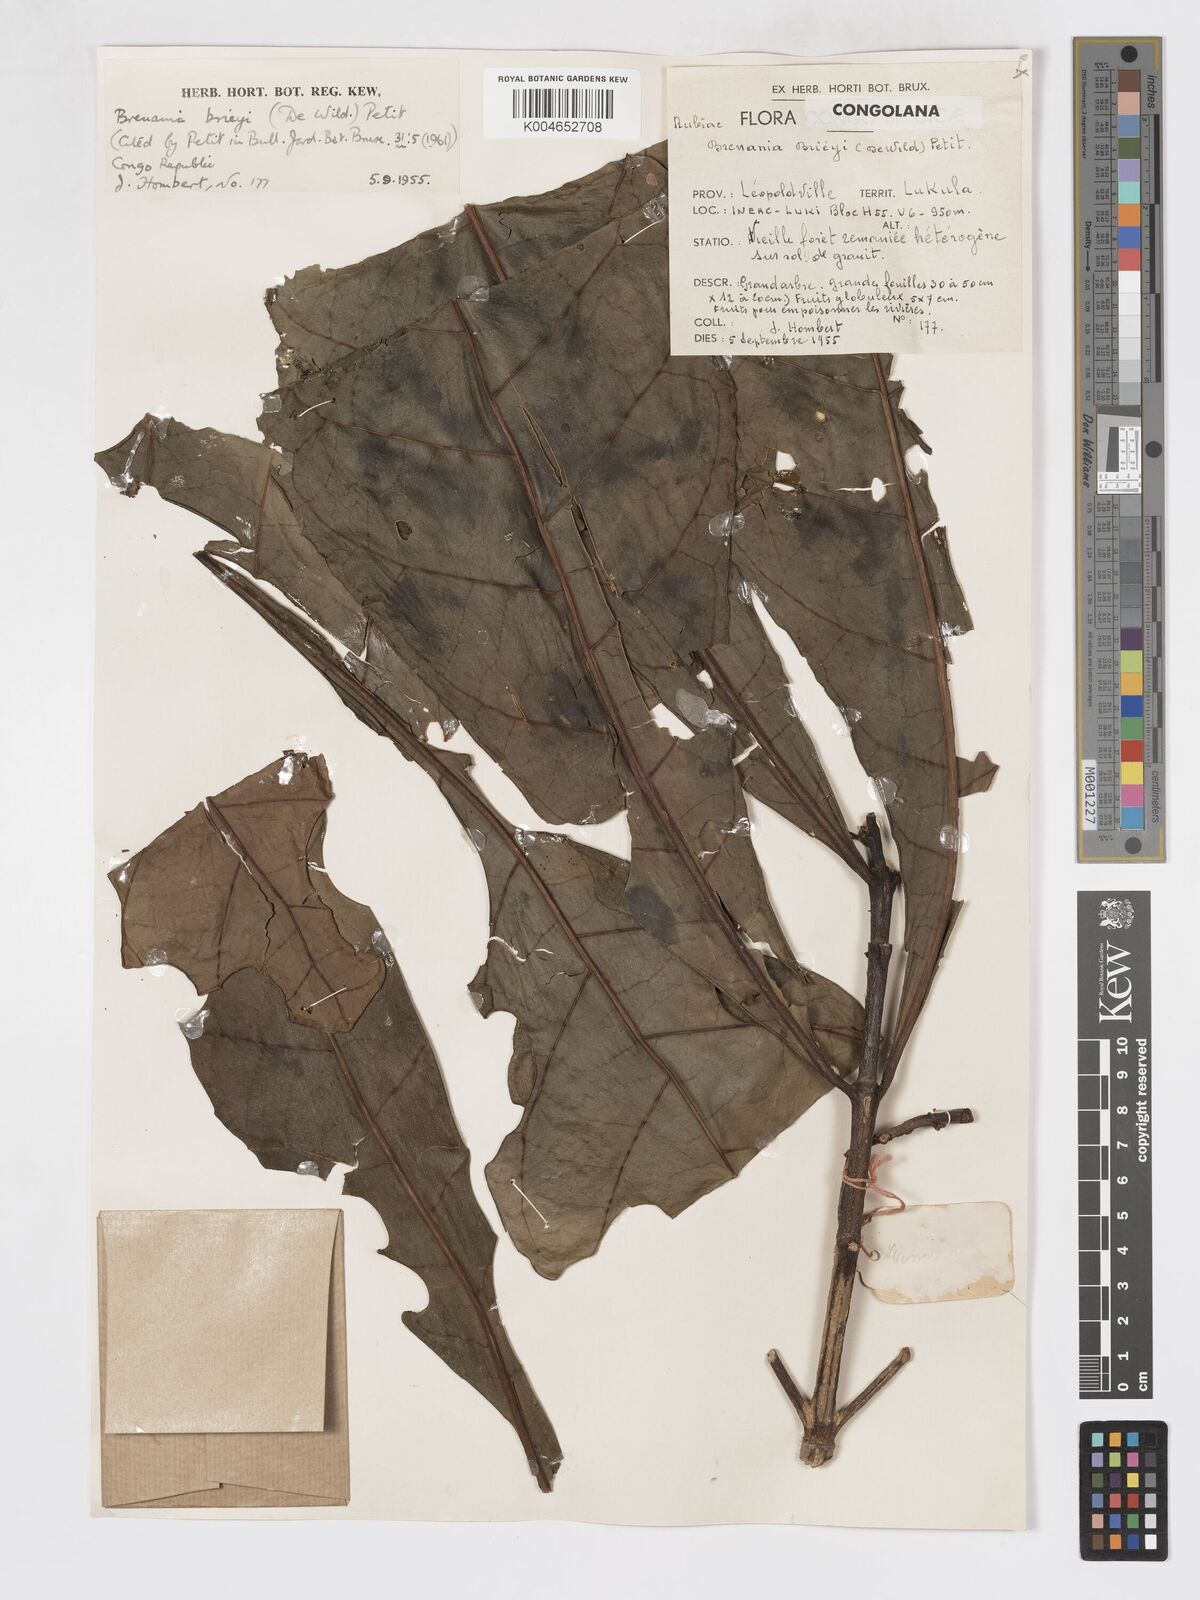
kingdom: Plantae
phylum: Tracheophyta
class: Magnoliopsida
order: Gentianales
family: Rubiaceae
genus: Brenania
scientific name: Brenania brieyi
